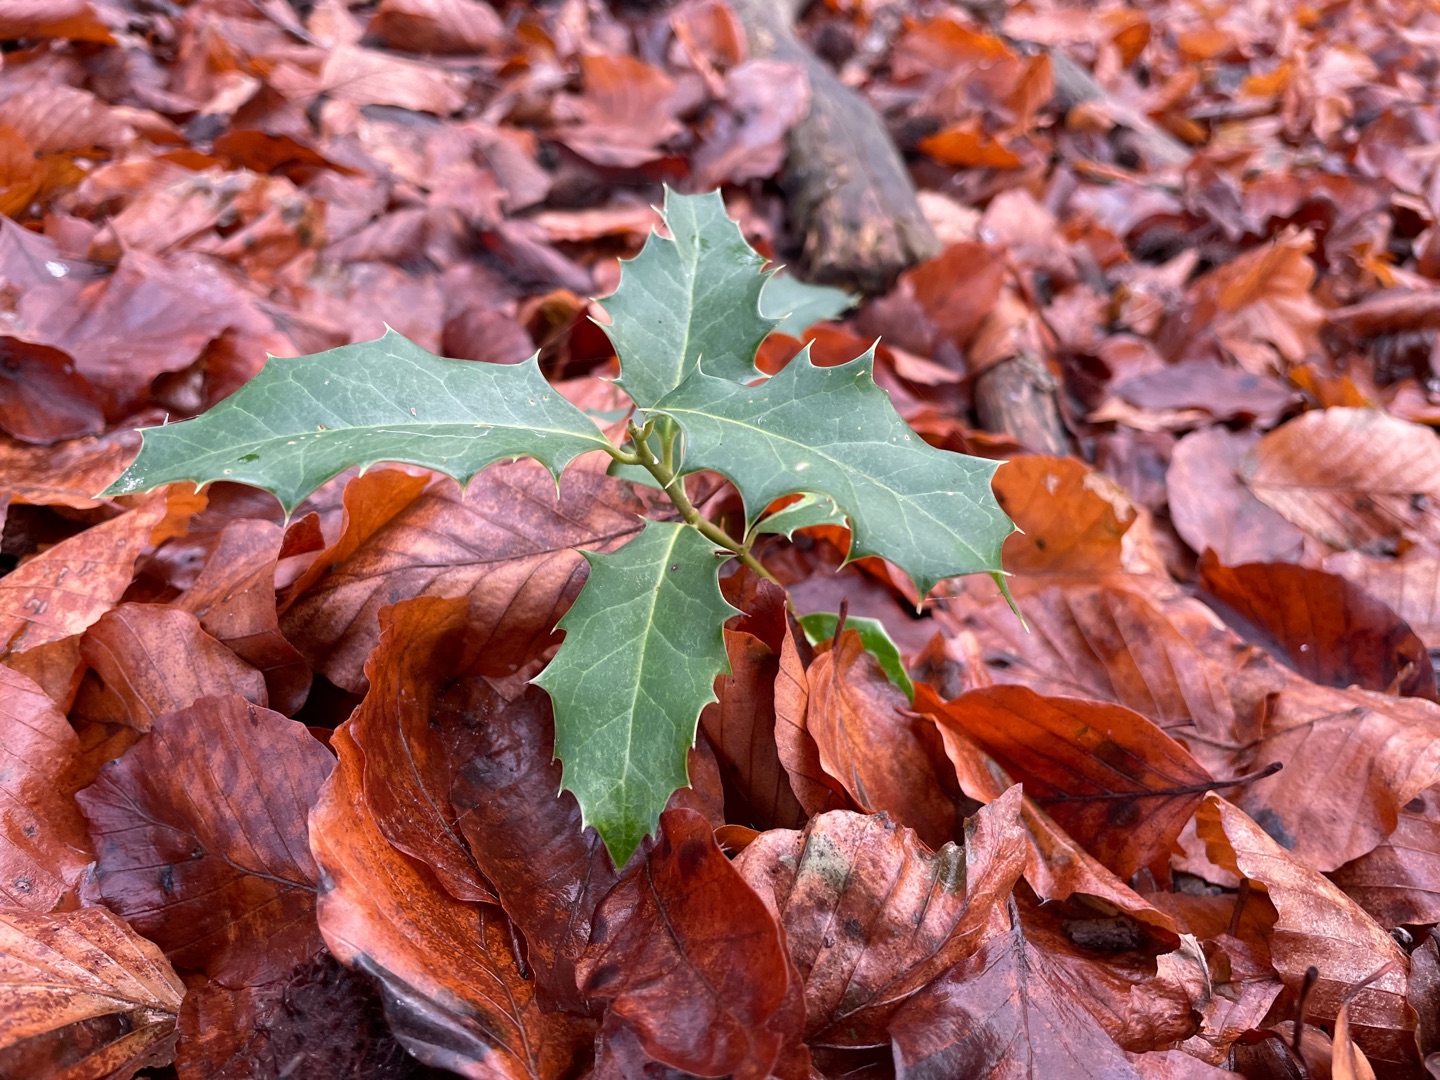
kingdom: Plantae
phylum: Tracheophyta
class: Magnoliopsida
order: Aquifoliales
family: Aquifoliaceae
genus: Ilex
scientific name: Ilex aquifolium
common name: Kristtorn
